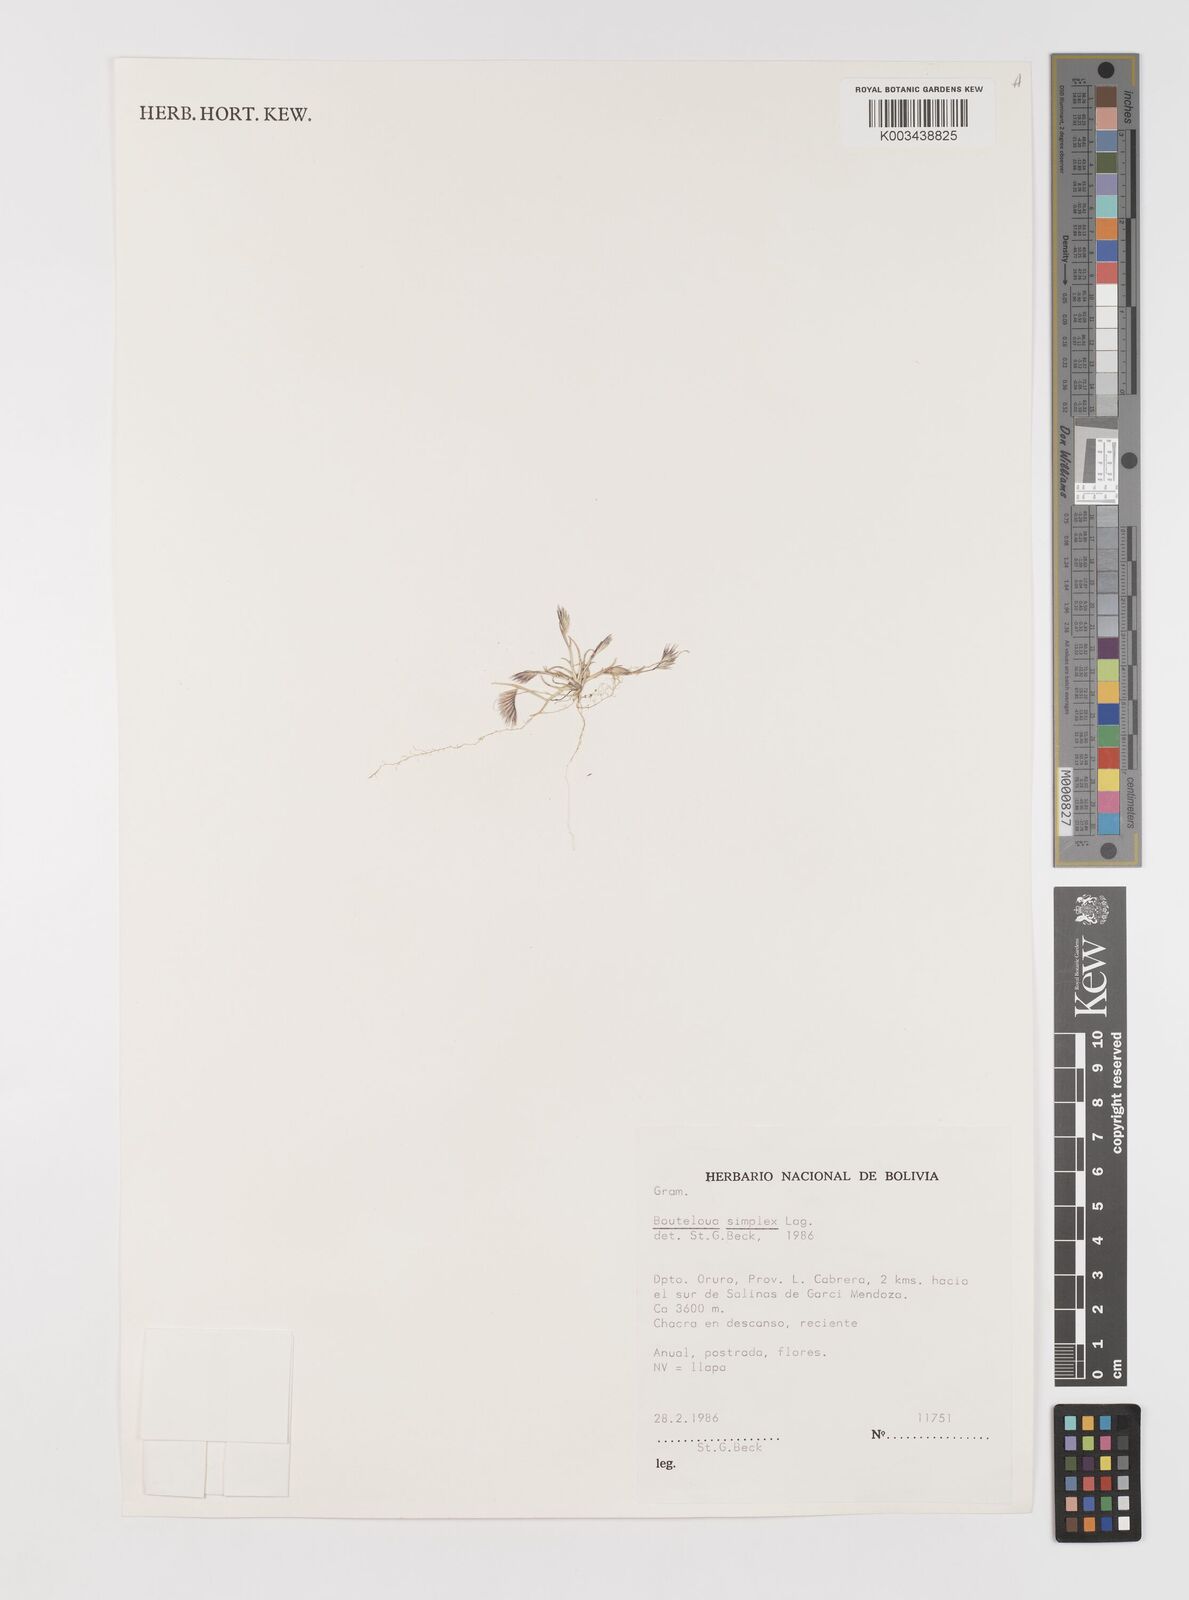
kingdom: Plantae
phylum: Tracheophyta
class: Liliopsida
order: Poales
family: Poaceae
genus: Bouteloua
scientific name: Bouteloua simplex
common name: Mat grama
